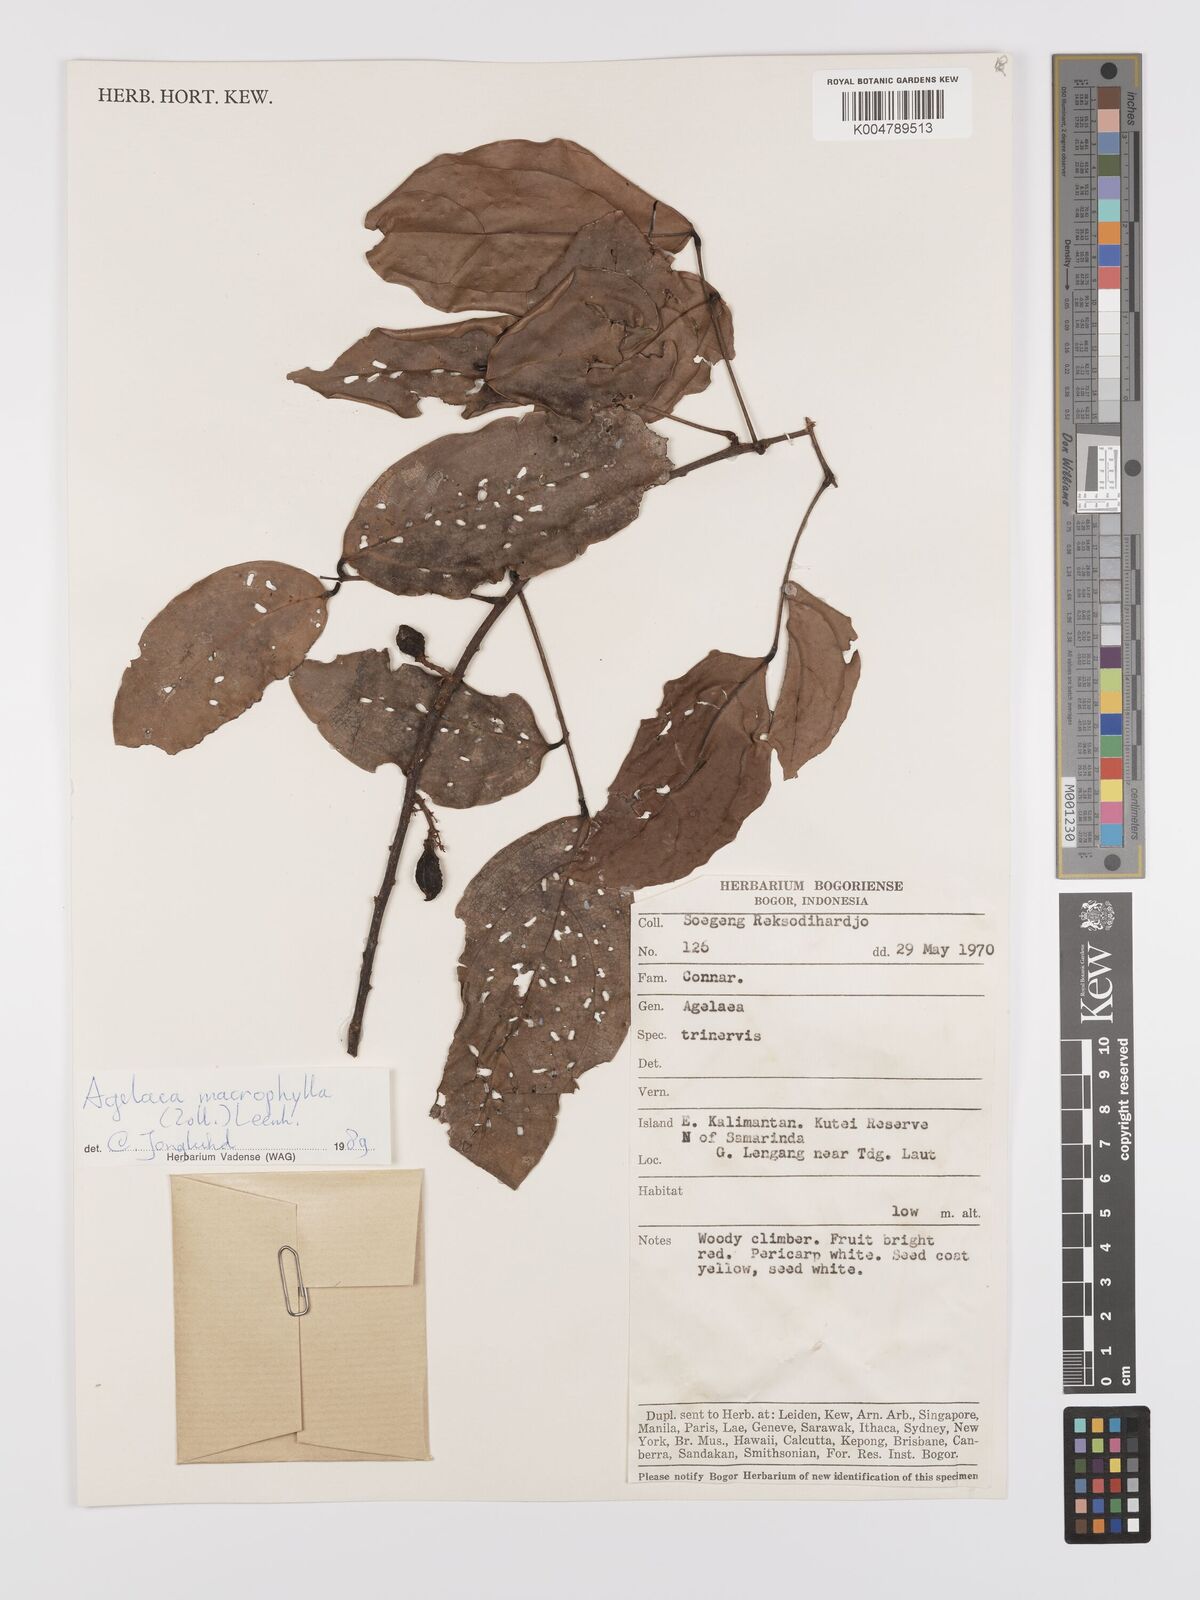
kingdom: Plantae
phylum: Tracheophyta
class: Magnoliopsida
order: Oxalidales
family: Connaraceae
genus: Agelaea
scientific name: Agelaea trinervis
